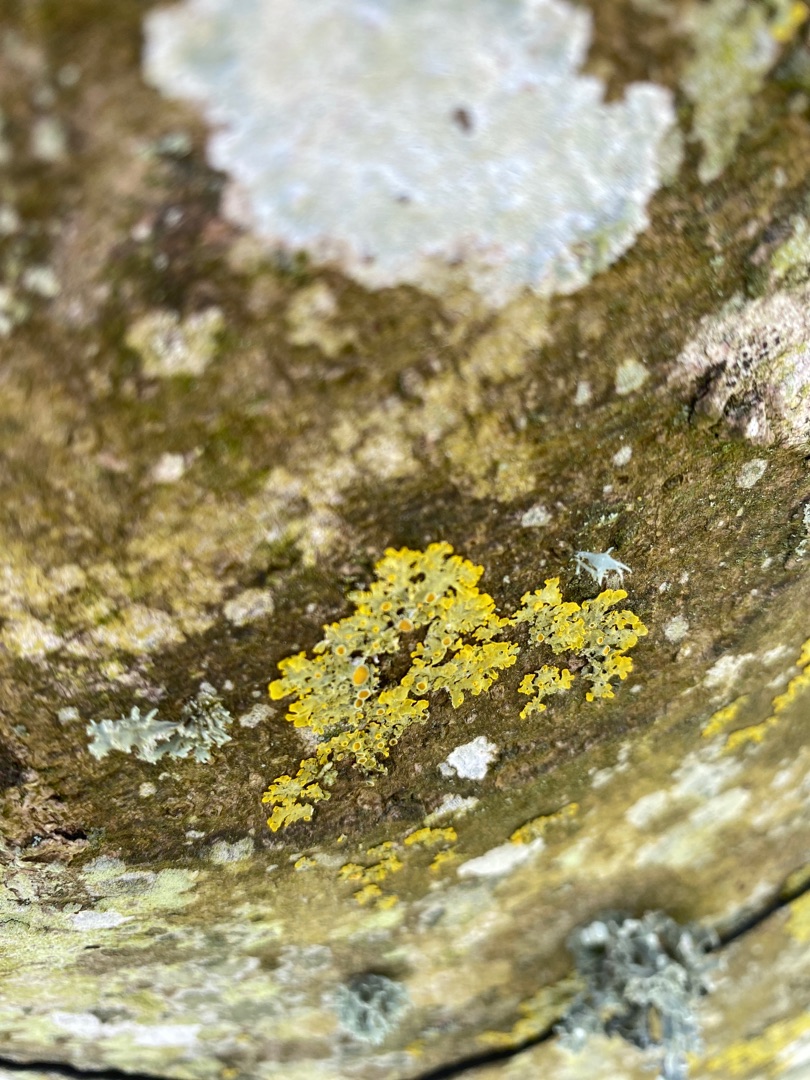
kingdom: Fungi
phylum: Ascomycota
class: Lecanoromycetes
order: Teloschistales
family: Teloschistaceae
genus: Xanthoria
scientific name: Xanthoria parietina
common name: Almindelig væggelav
